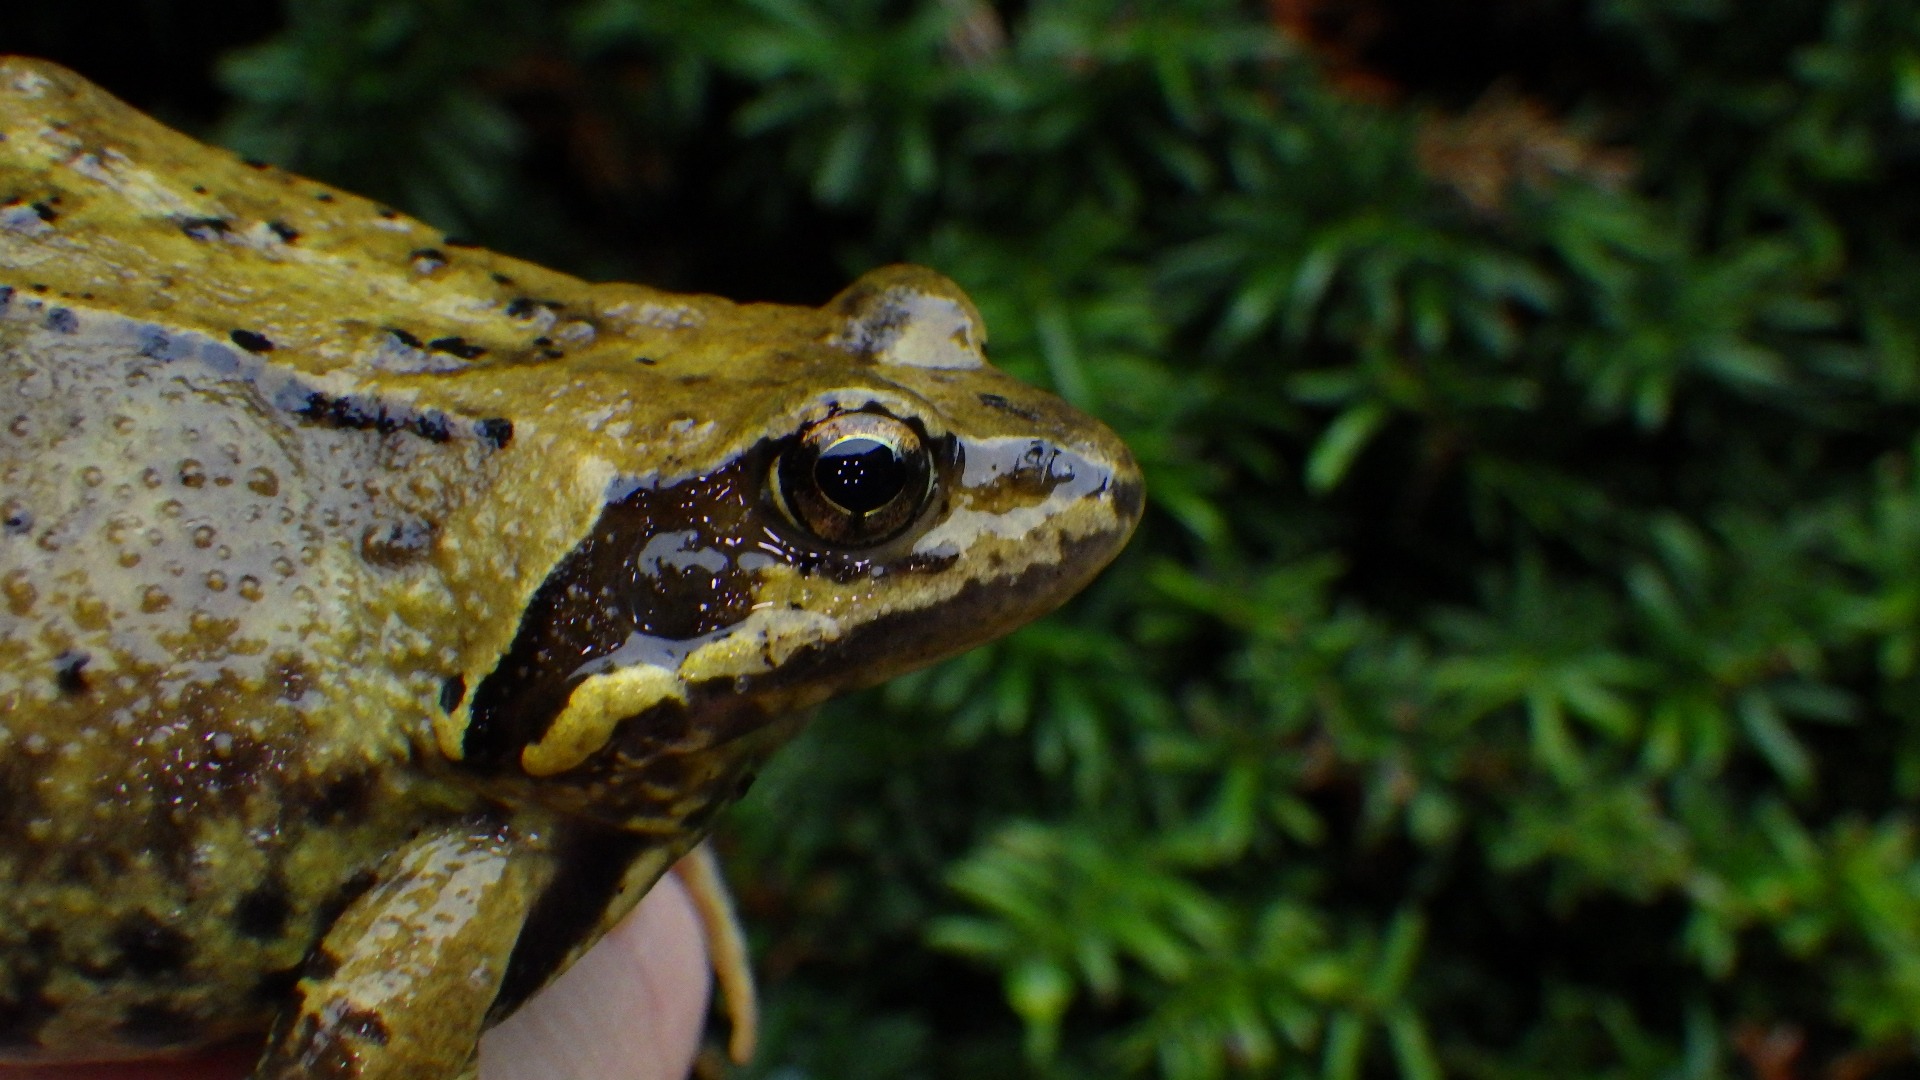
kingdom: Animalia
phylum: Chordata
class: Amphibia
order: Anura
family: Ranidae
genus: Rana
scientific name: Rana temporaria
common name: Butsnudet frø
